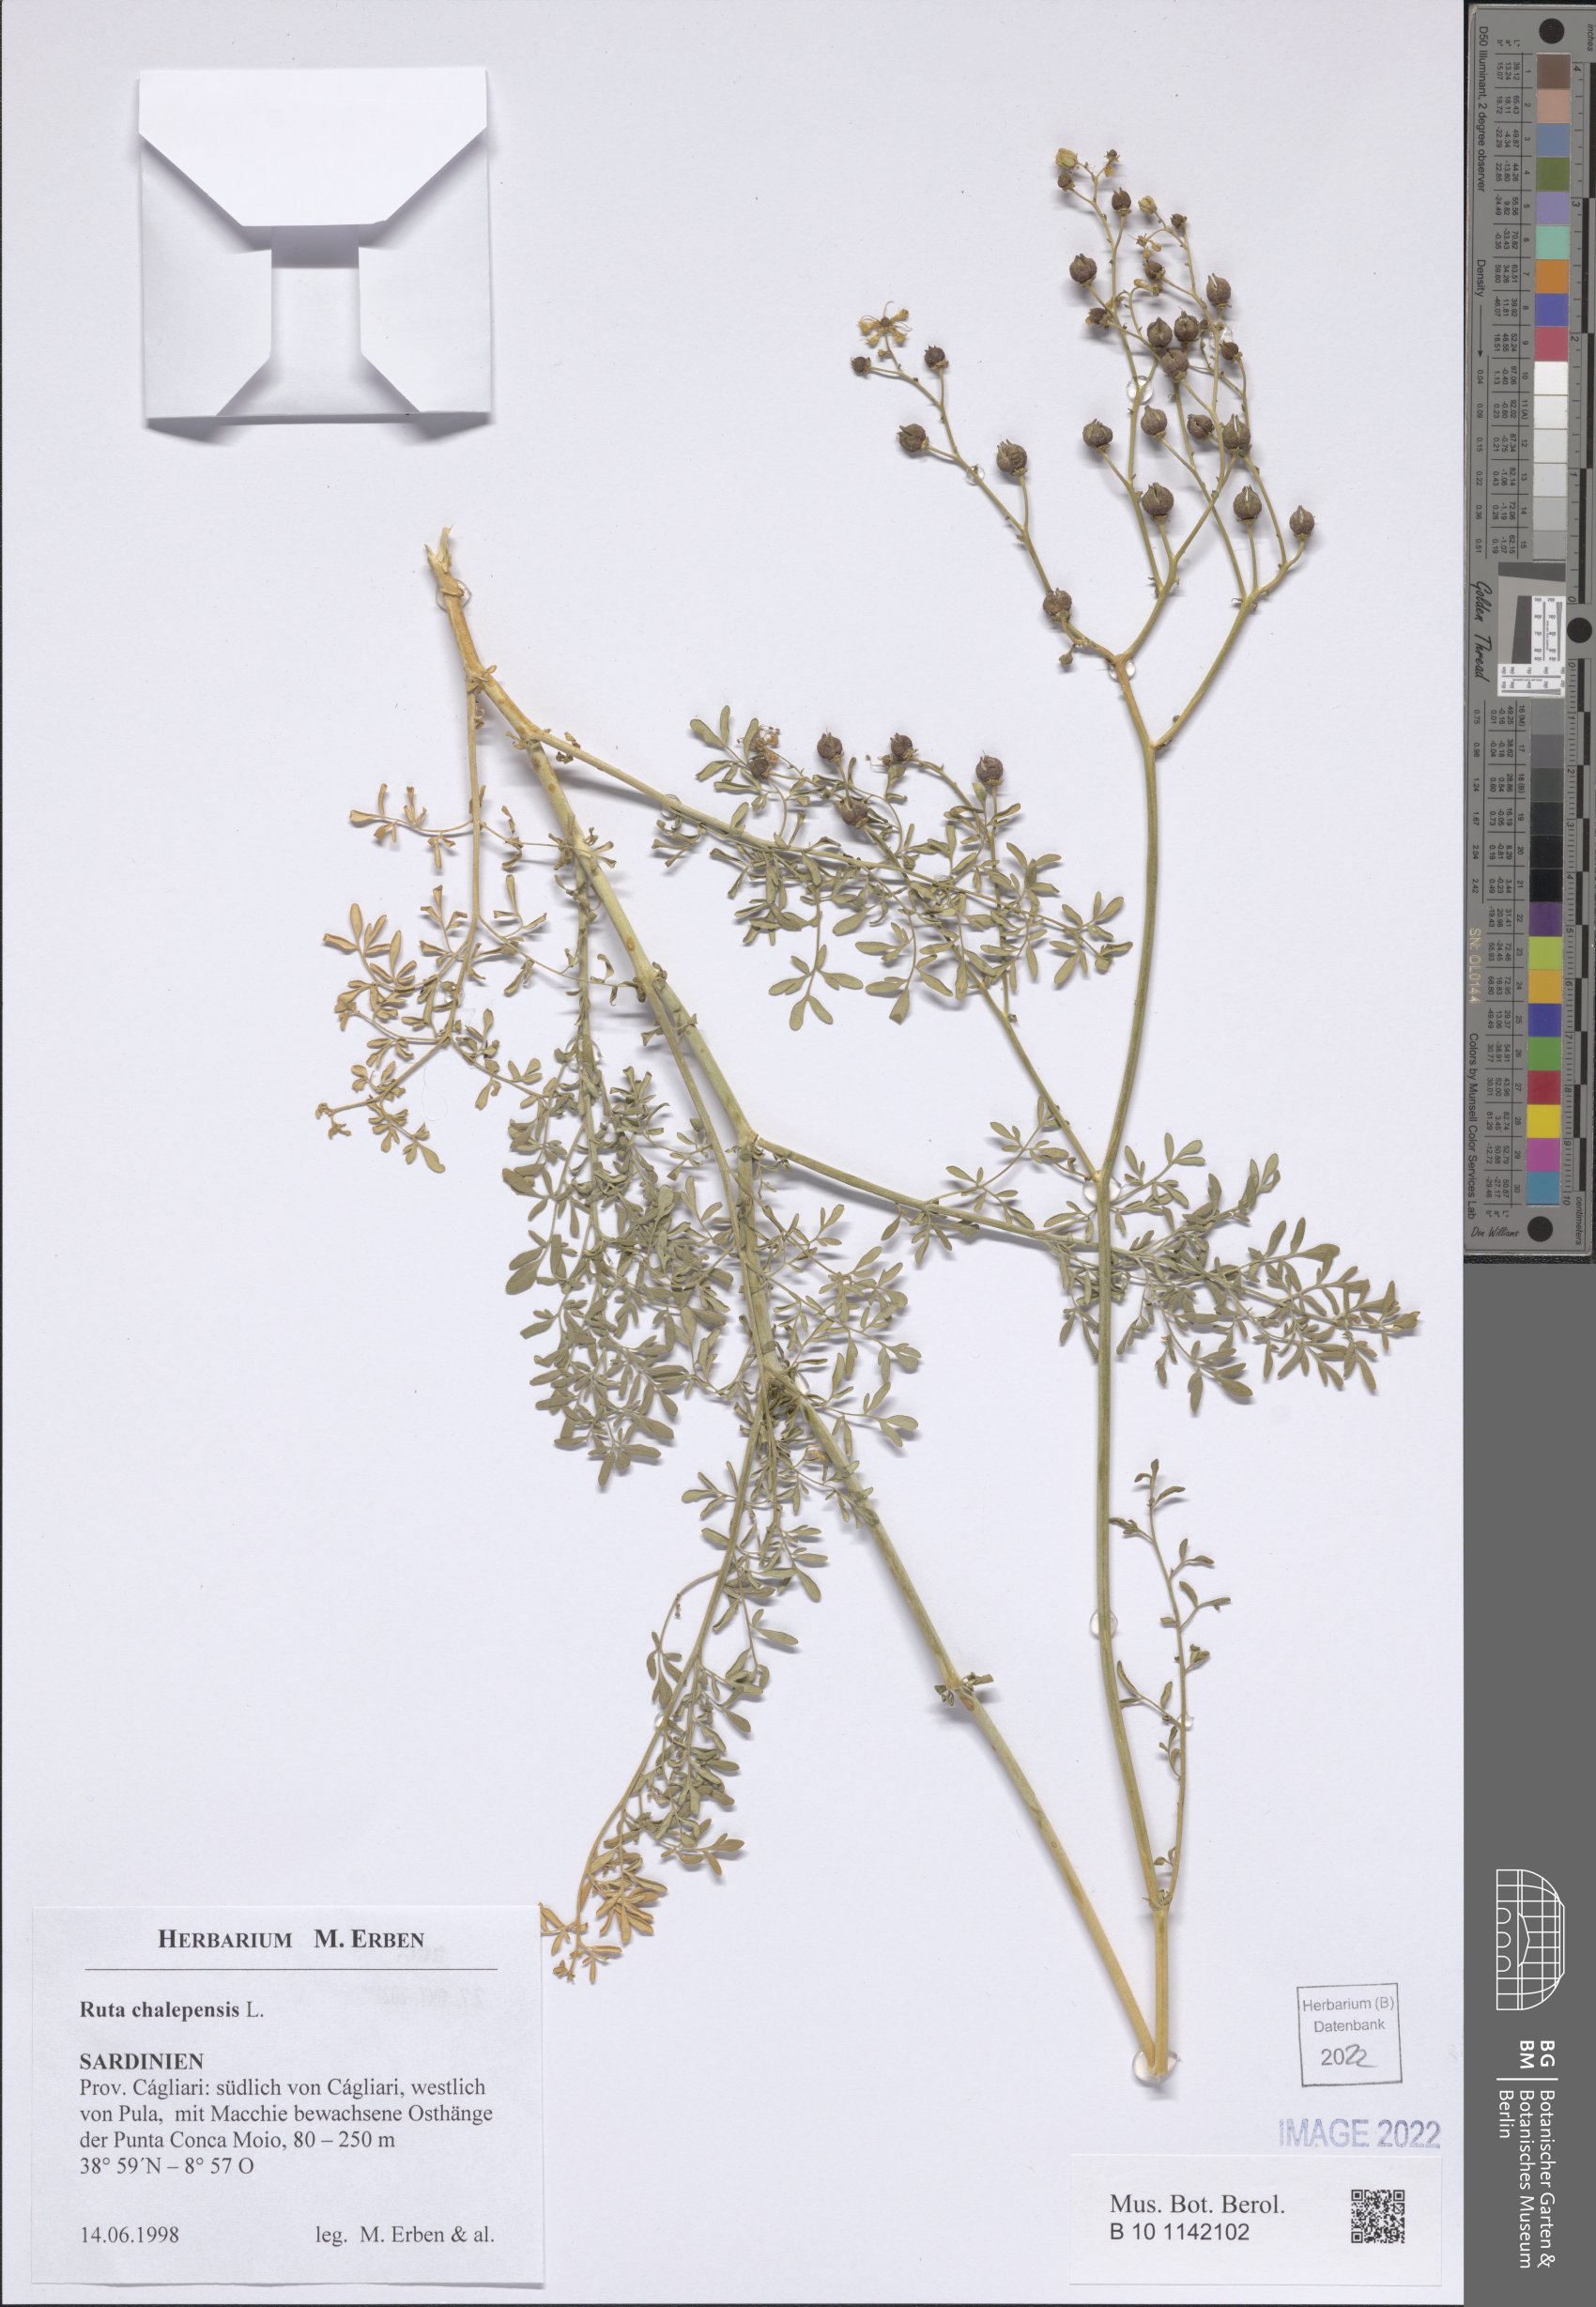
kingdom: Plantae
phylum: Tracheophyta
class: Magnoliopsida
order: Sapindales
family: Rutaceae
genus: Ruta
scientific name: Ruta chalepensis
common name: Fringed rue
